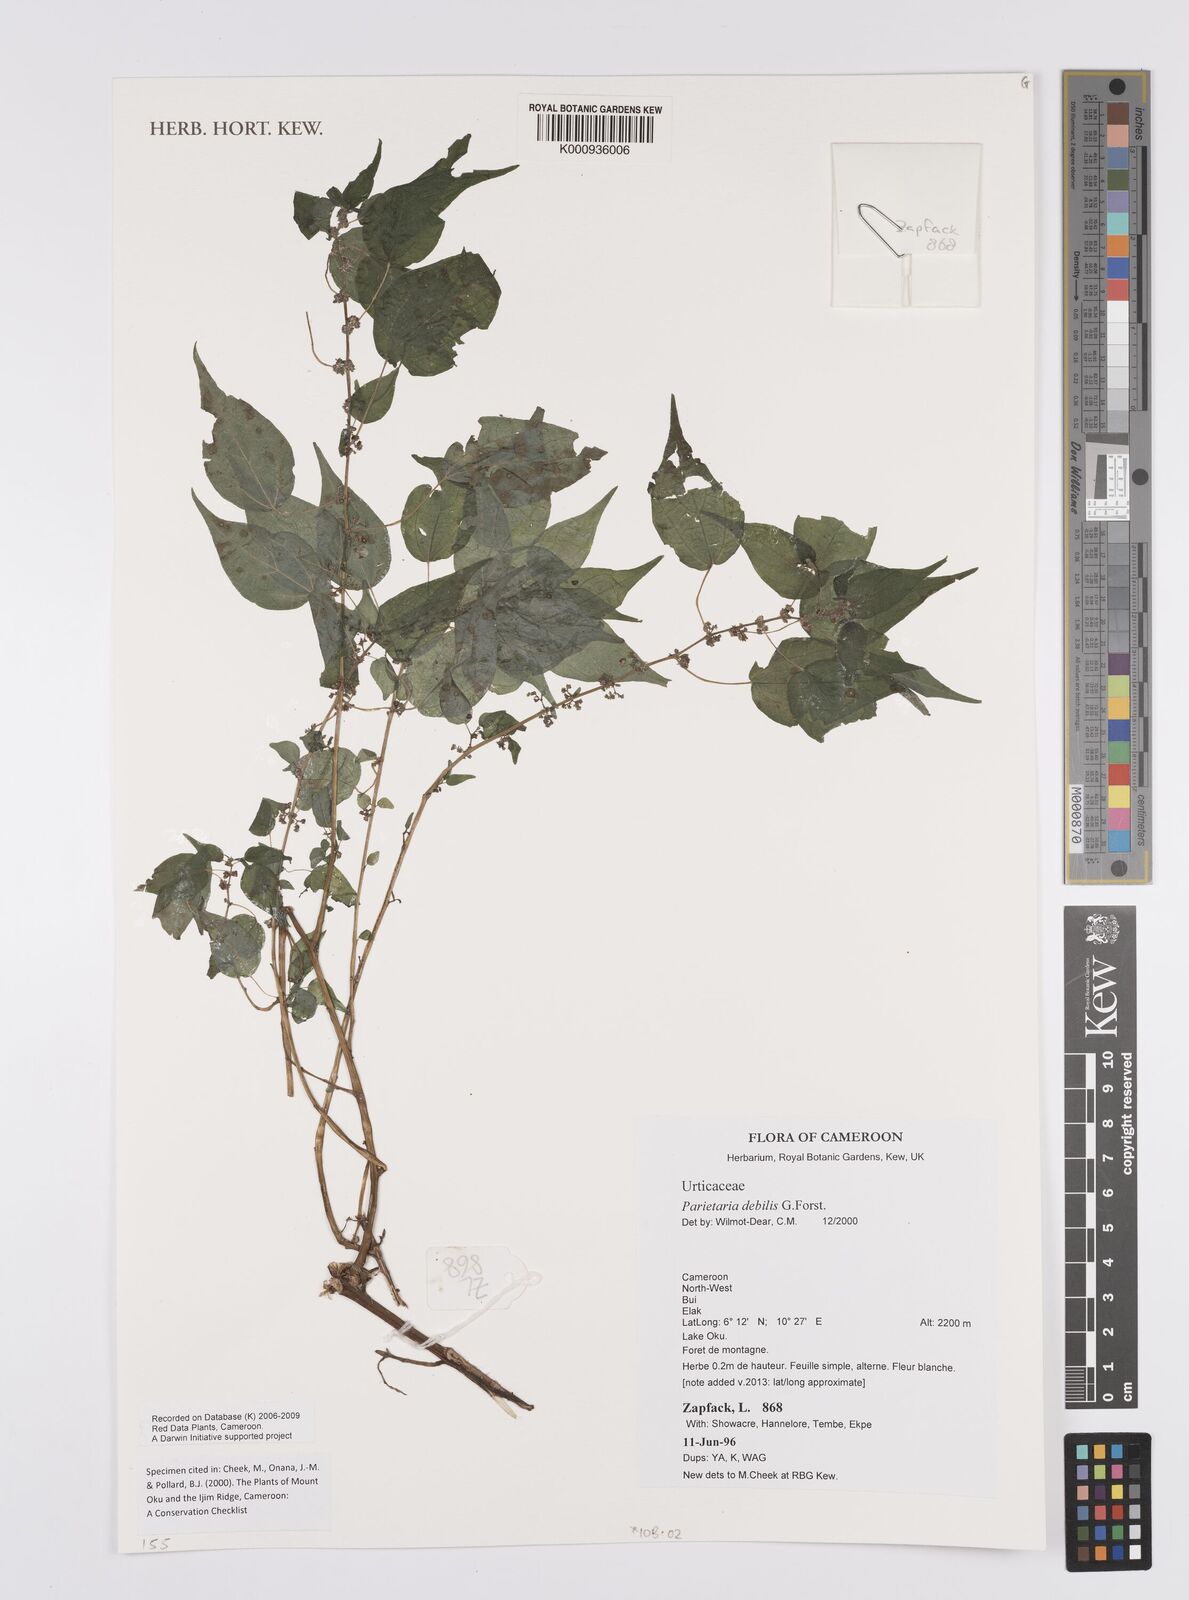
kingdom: Plantae
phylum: Tracheophyta
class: Magnoliopsida
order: Rosales
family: Urticaceae
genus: Parietaria
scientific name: Parietaria debilis
